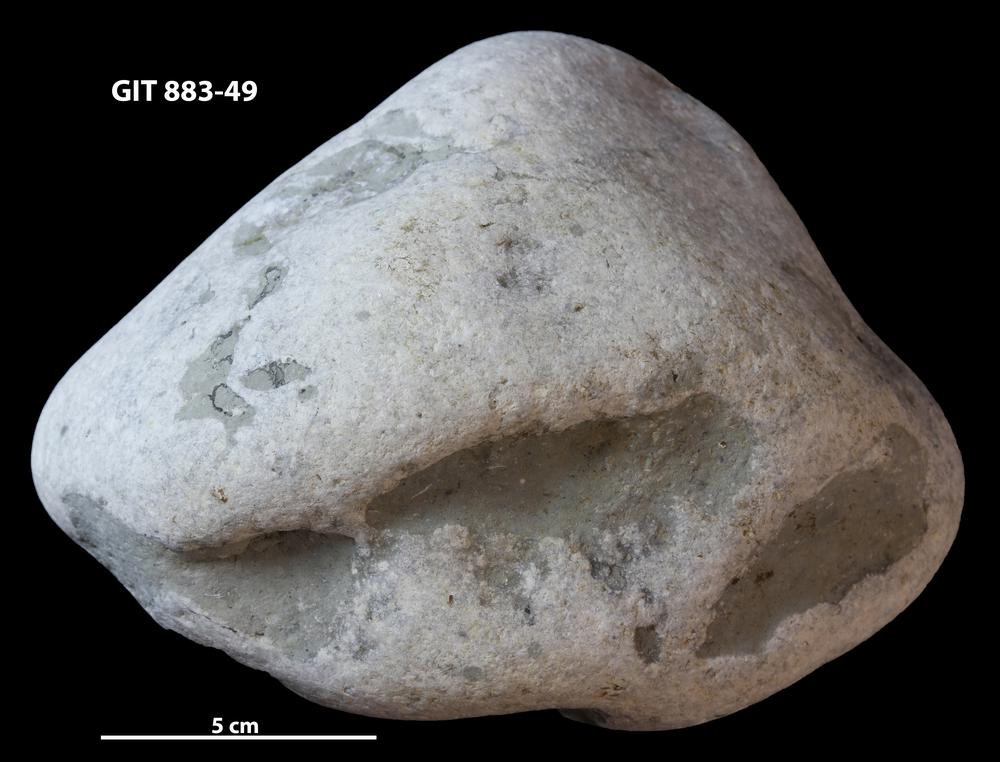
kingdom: Animalia
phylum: Porifera
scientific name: Porifera
